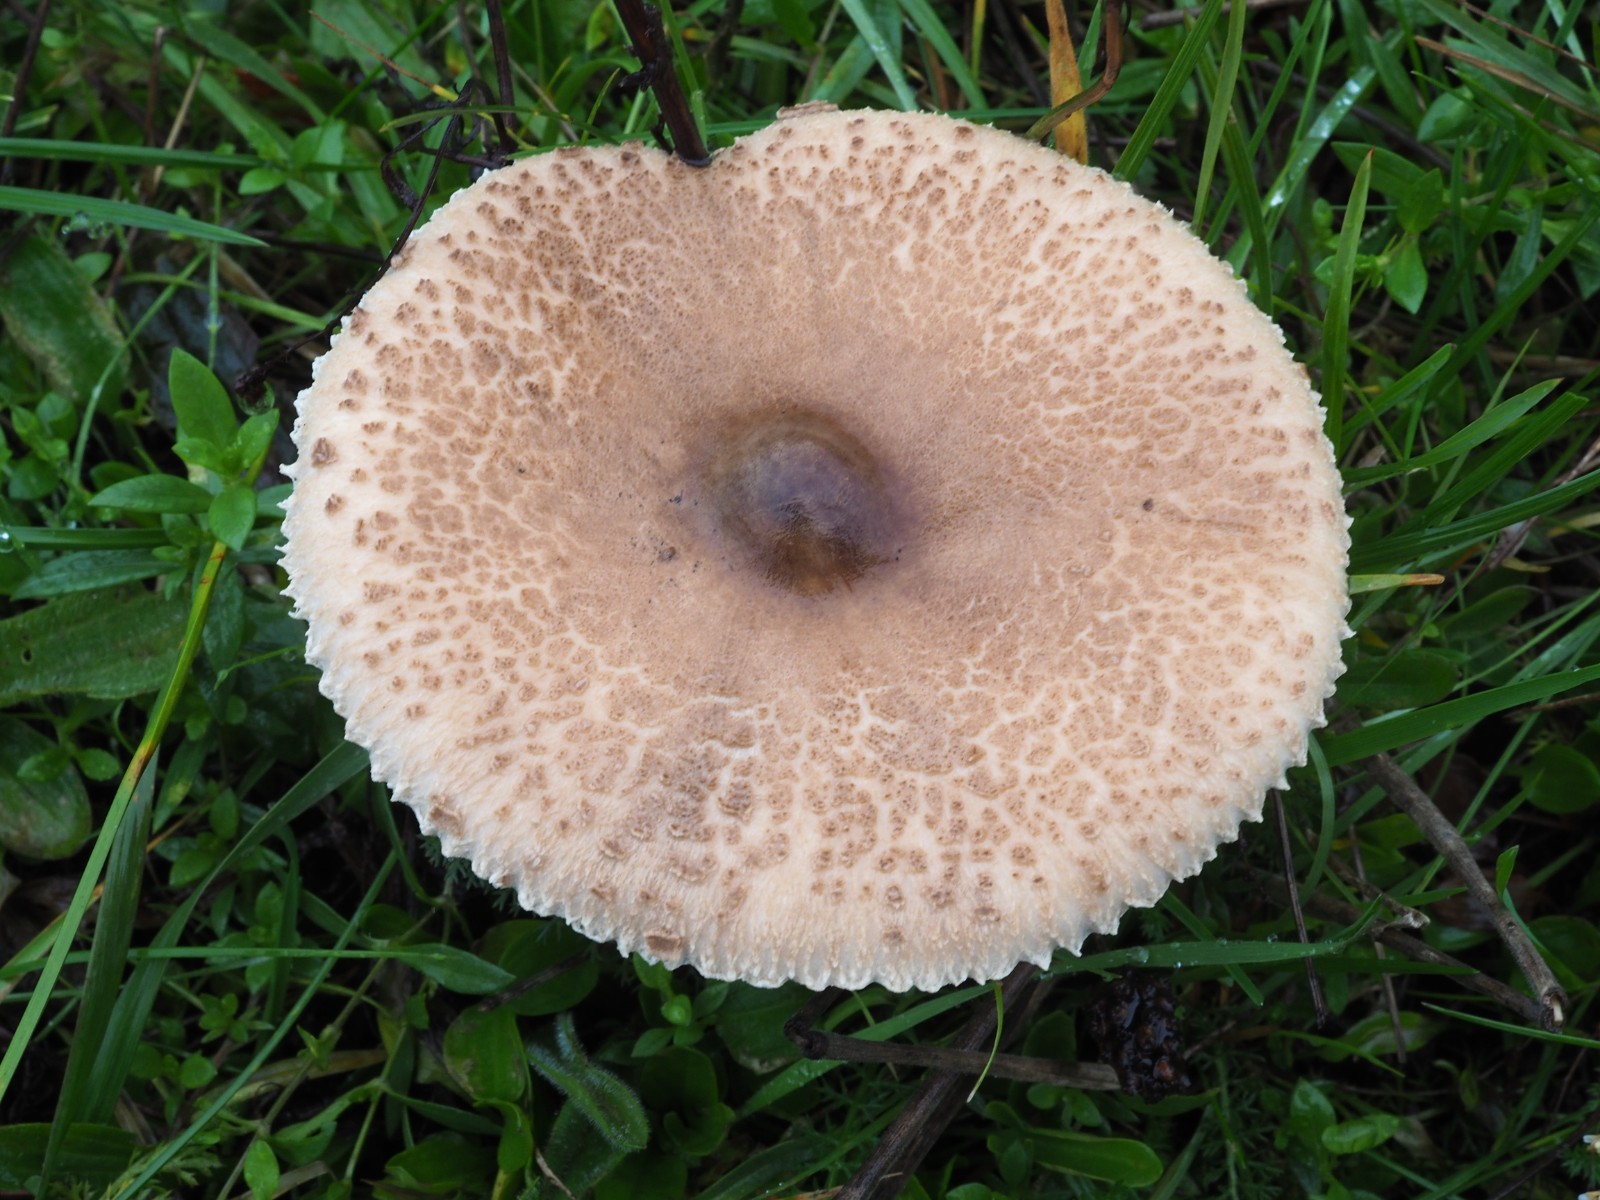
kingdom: Fungi
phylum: Basidiomycota
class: Agaricomycetes
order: Agaricales
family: Agaricaceae
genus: Macrolepiota
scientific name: Macrolepiota excoriata
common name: mark-kæmpeparasolhat
